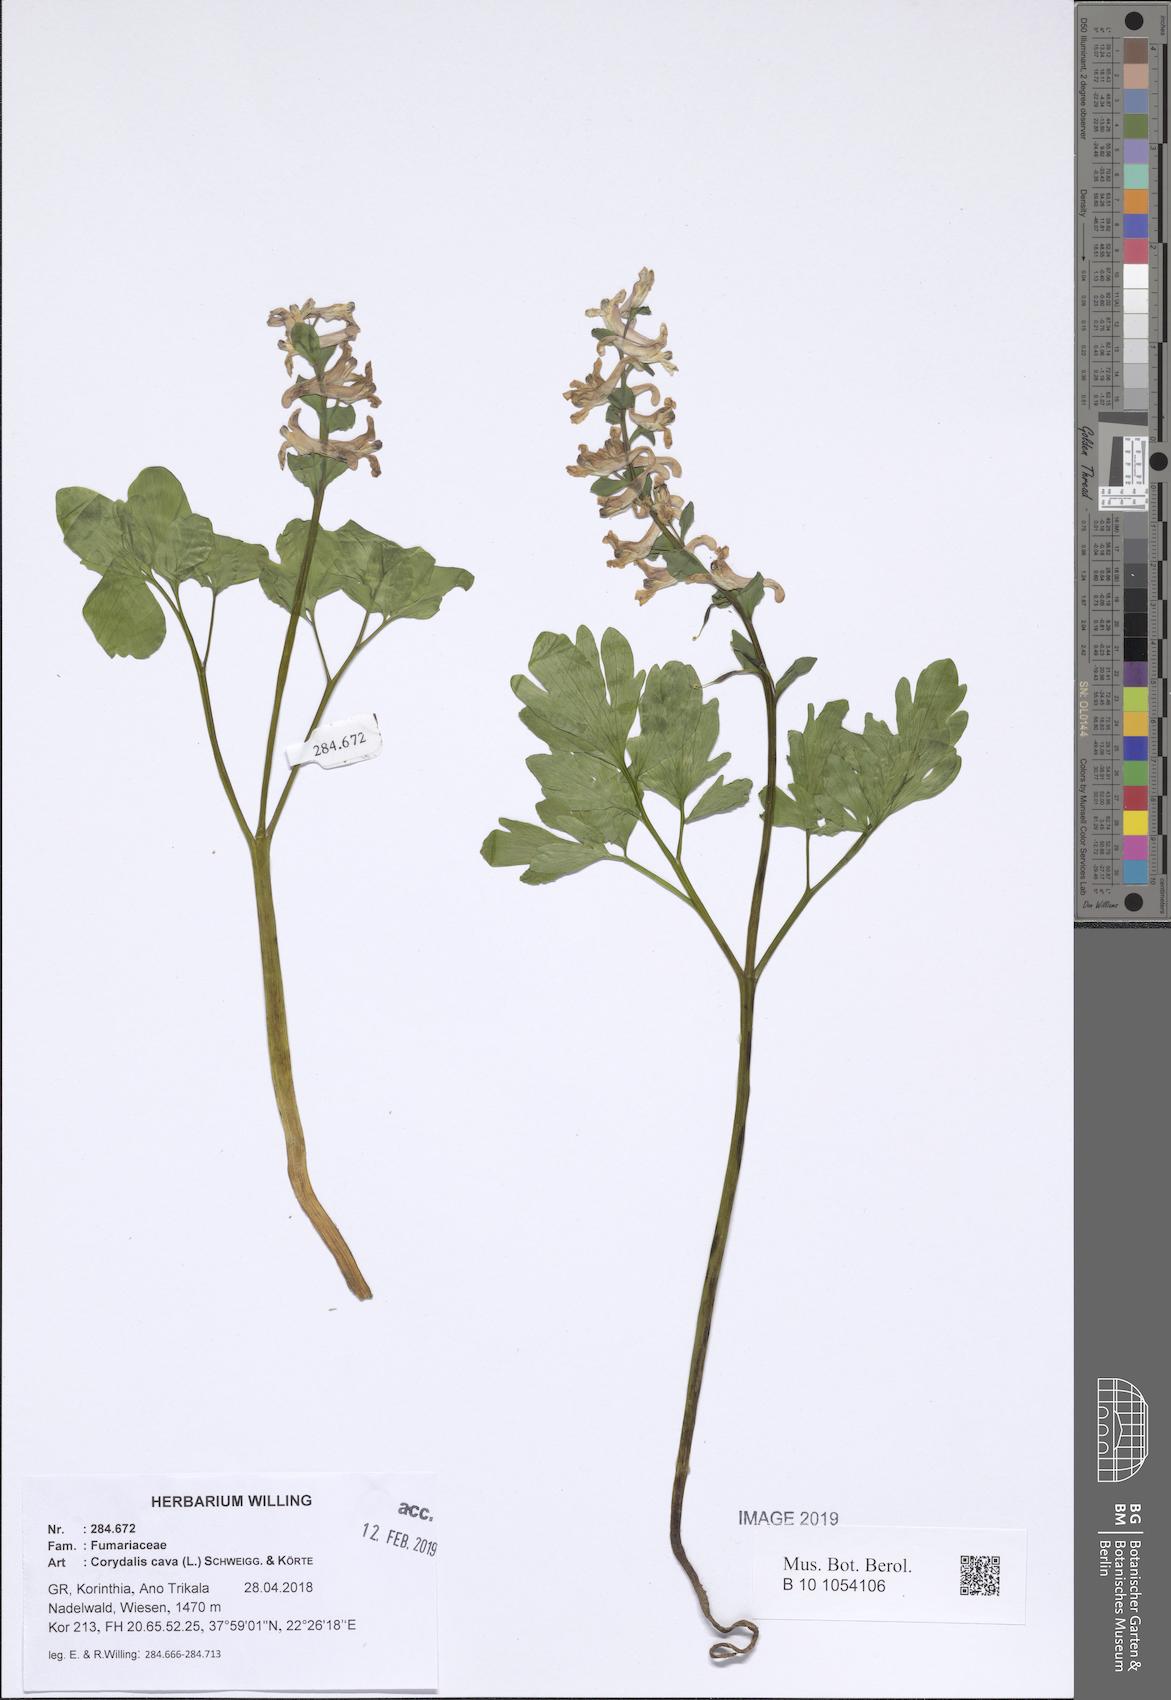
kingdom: Plantae
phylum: Tracheophyta
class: Magnoliopsida
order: Ranunculales
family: Papaveraceae
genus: Corydalis
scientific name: Corydalis cava
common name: Hollowroot
